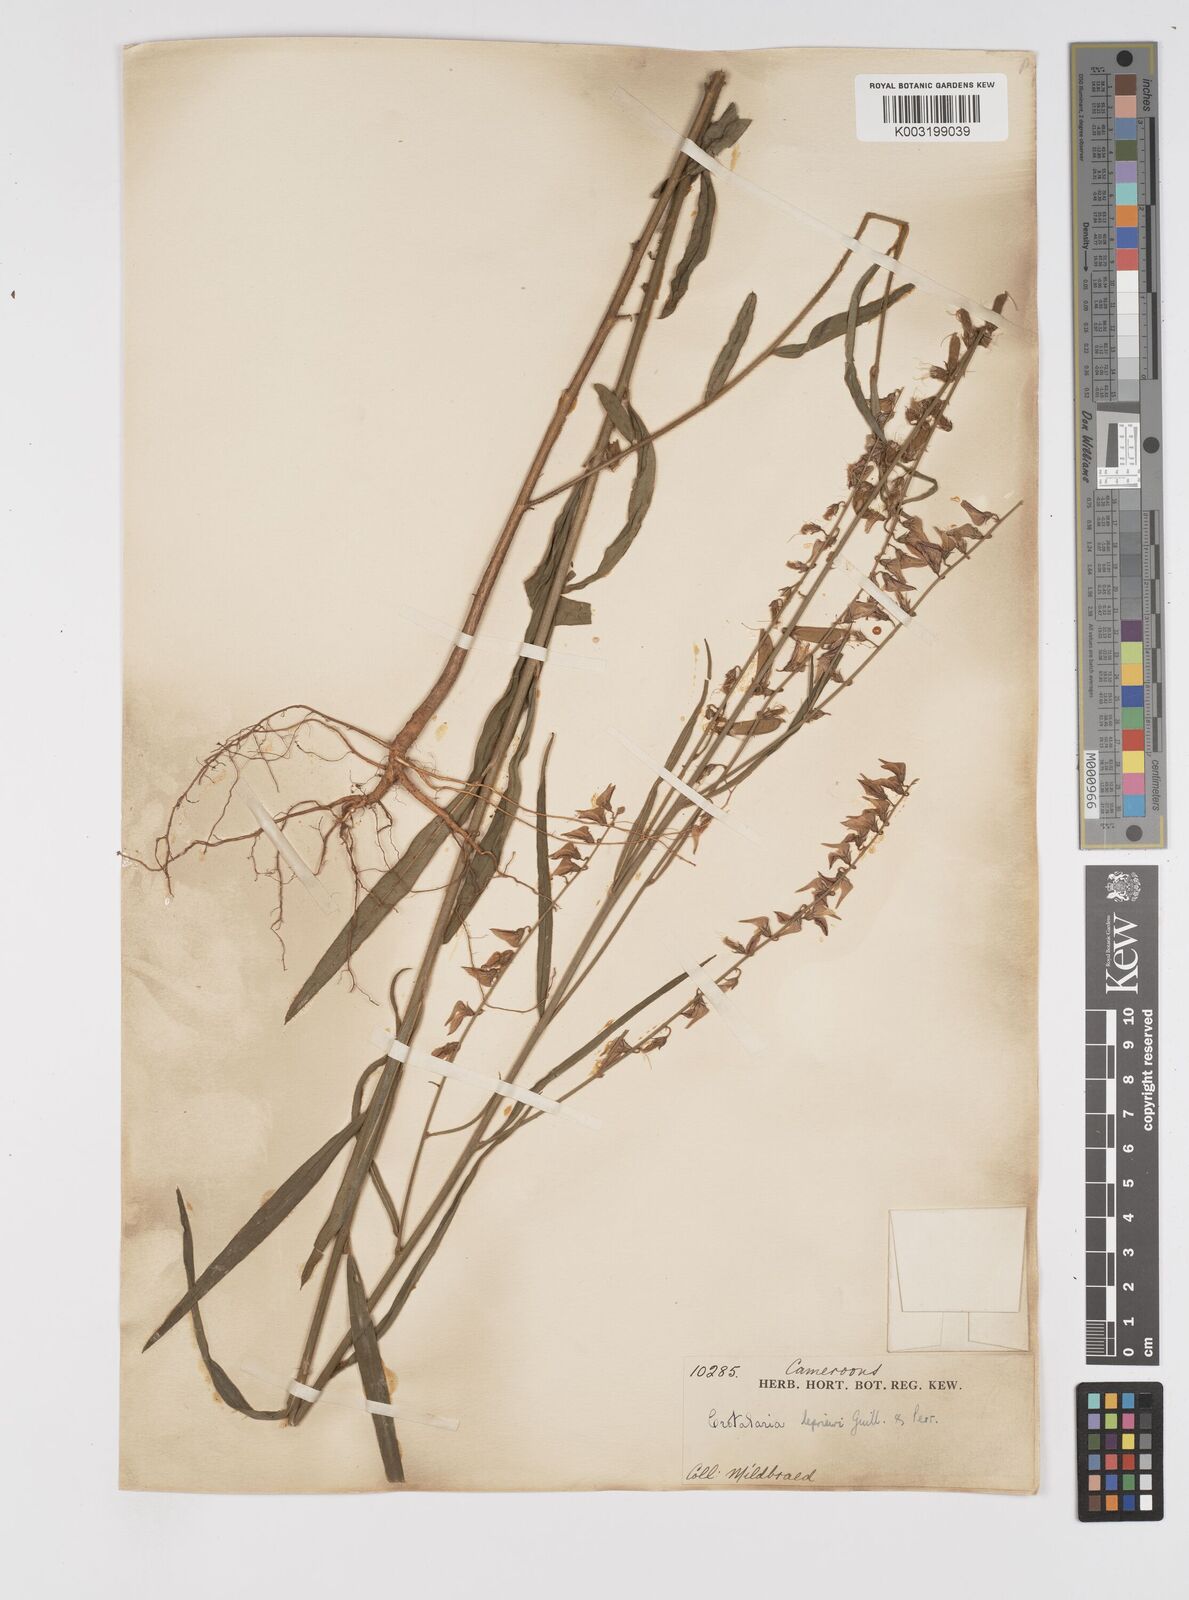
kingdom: Plantae
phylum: Tracheophyta
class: Magnoliopsida
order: Fabales
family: Fabaceae
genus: Crotalaria
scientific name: Crotalaria leprieurii
